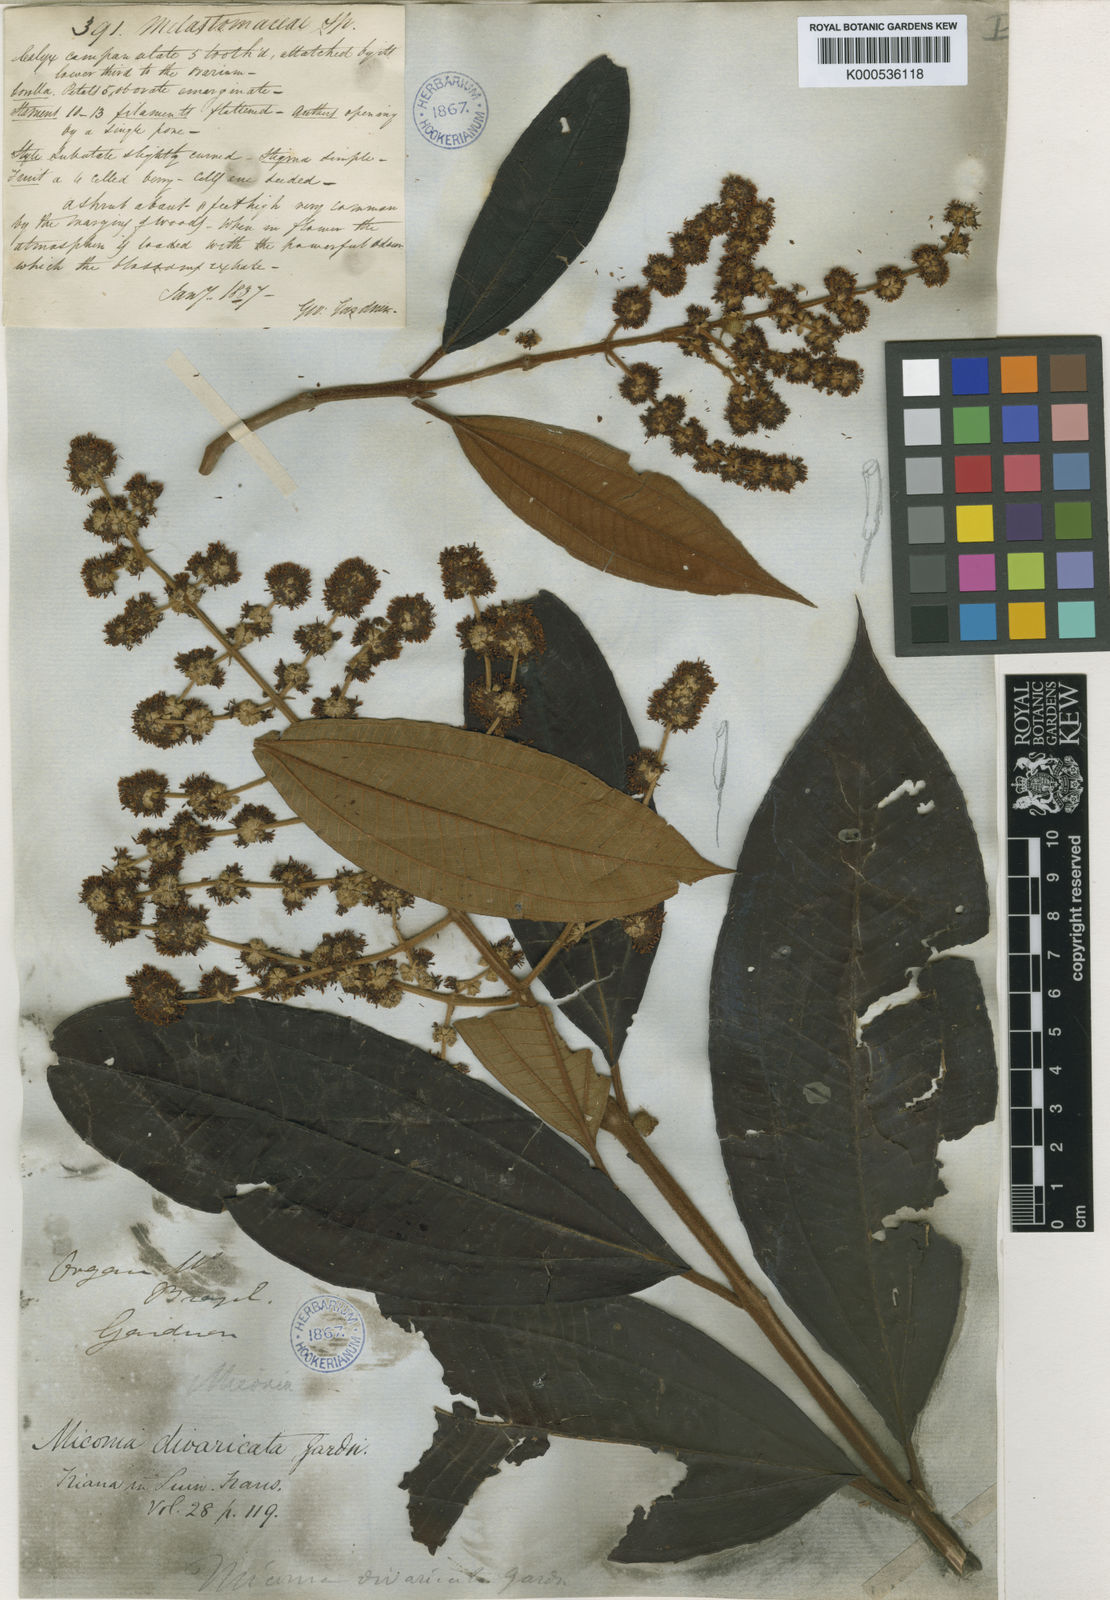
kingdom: Plantae
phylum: Tracheophyta
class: Magnoliopsida
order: Myrtales
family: Melastomataceae
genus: Miconia
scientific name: Miconia fasciculata
